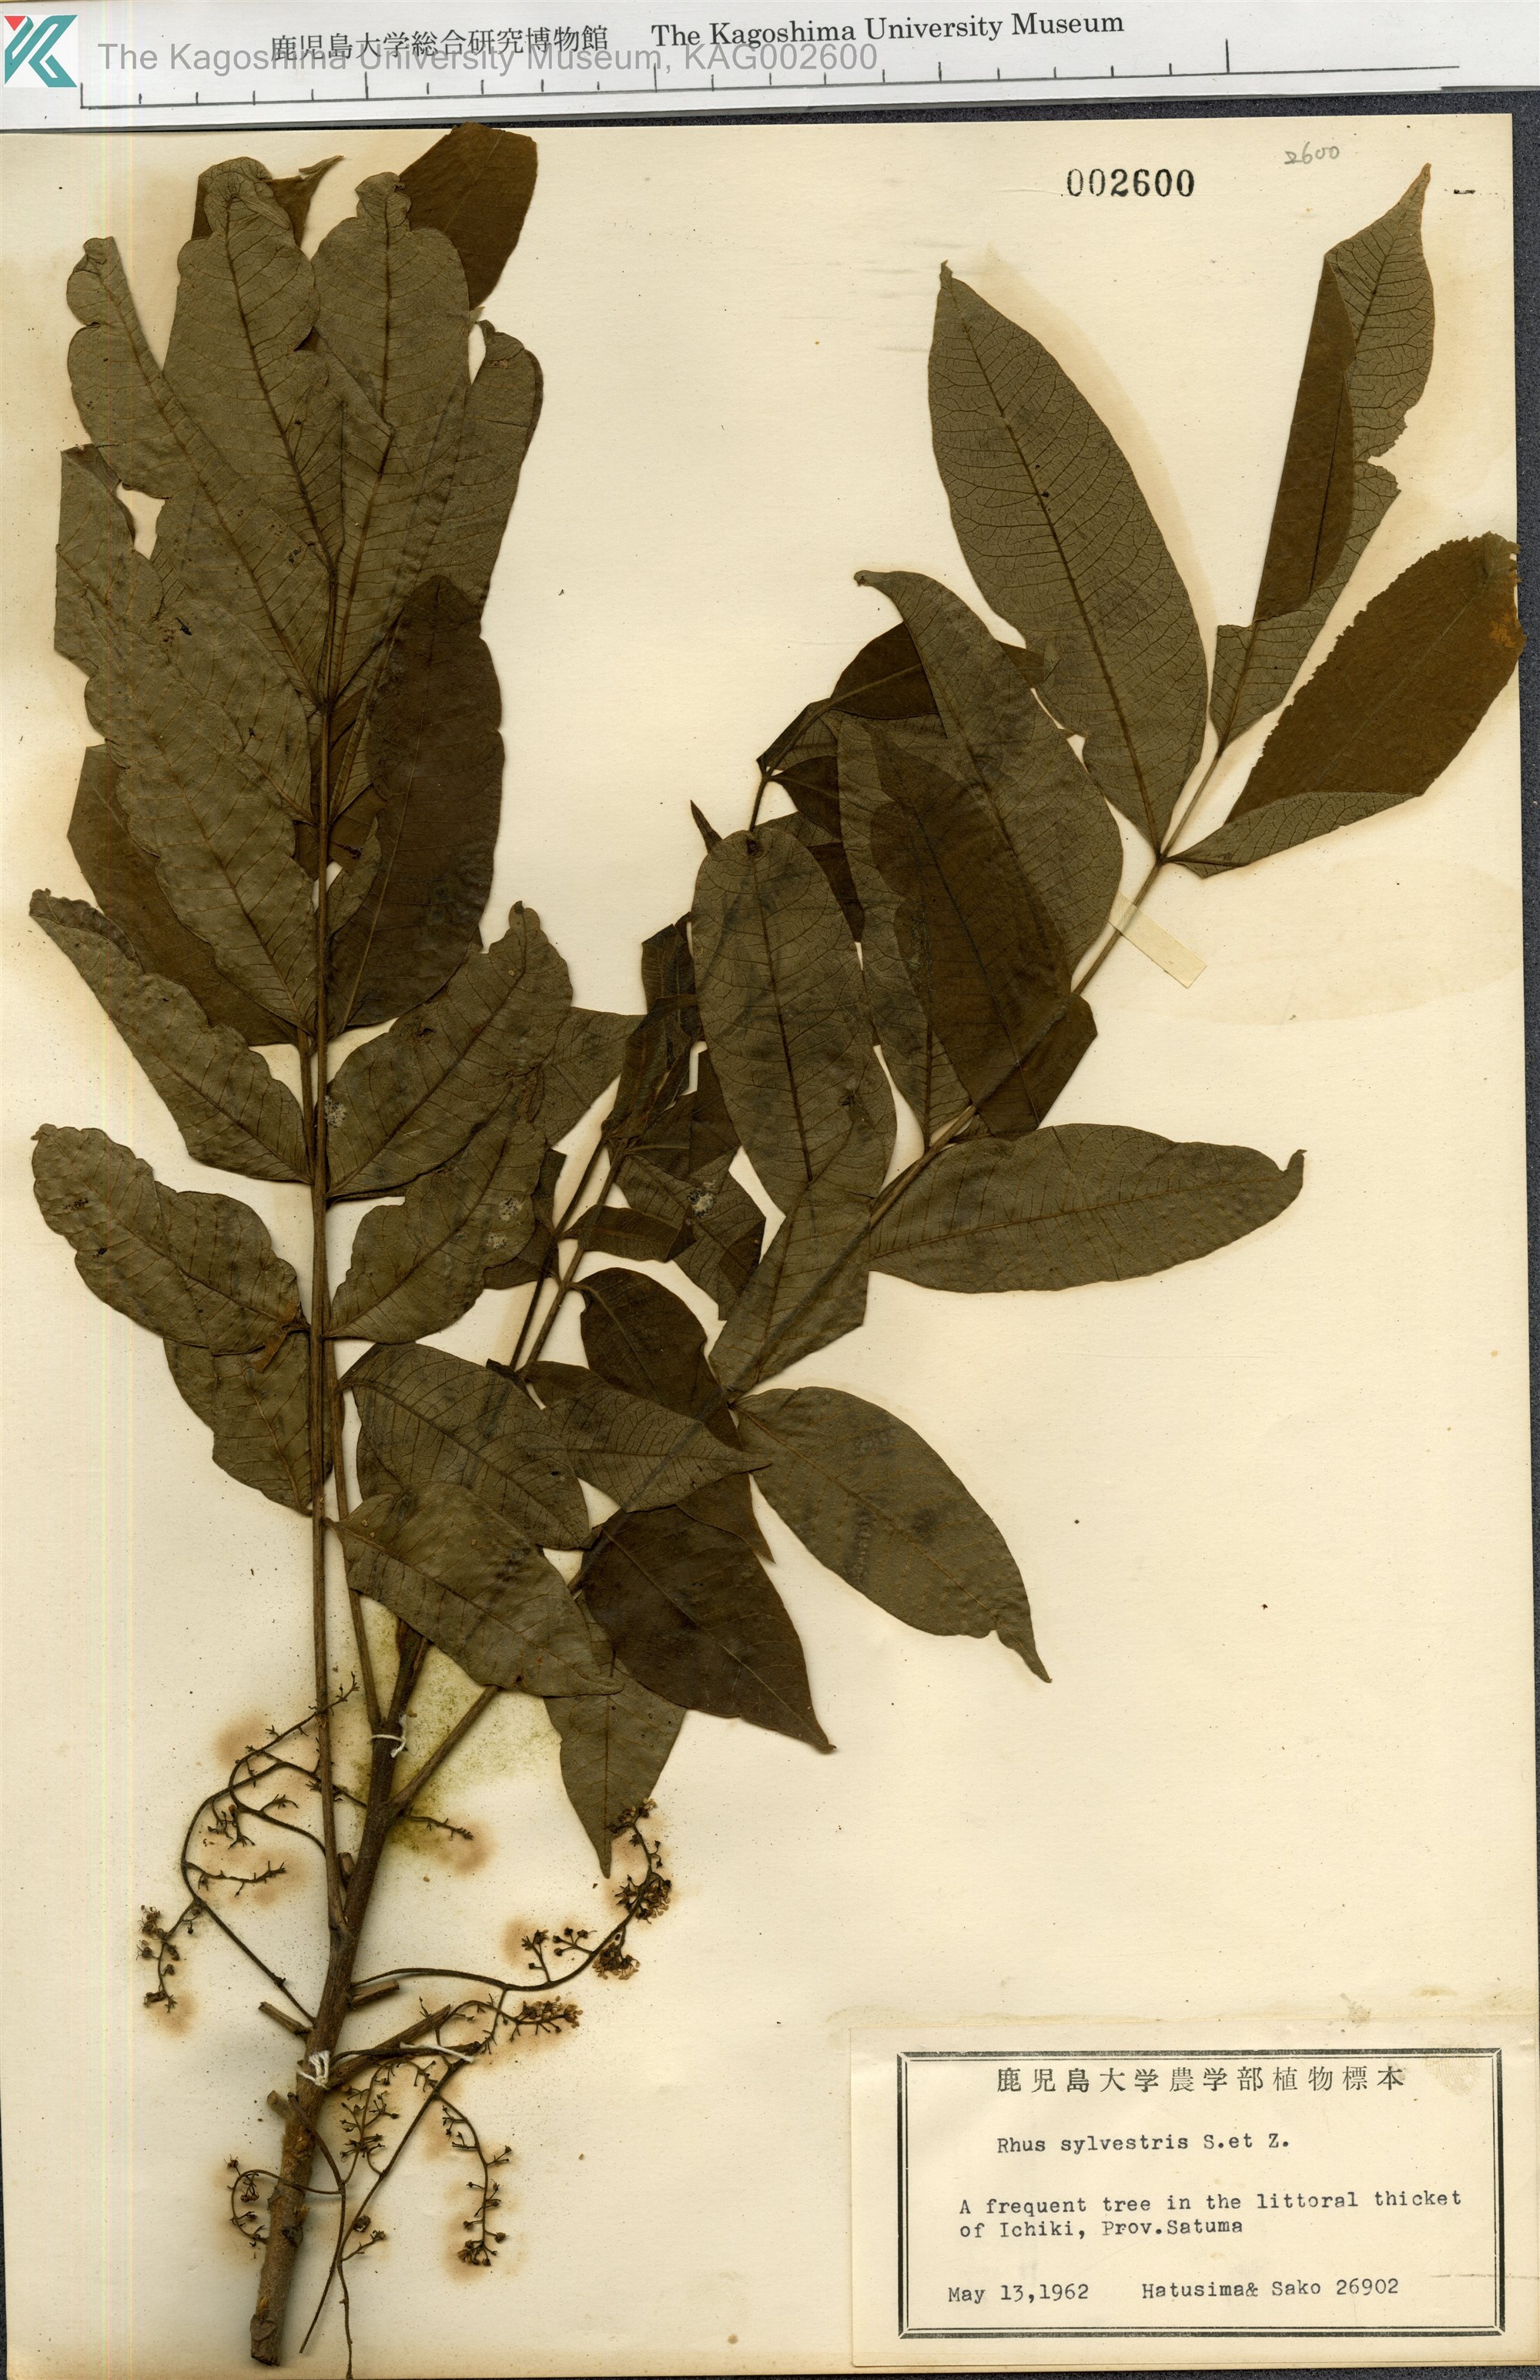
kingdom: Plantae
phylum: Tracheophyta
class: Magnoliopsida
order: Sapindales
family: Anacardiaceae
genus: Toxicodendron
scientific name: Toxicodendron sylvestre
